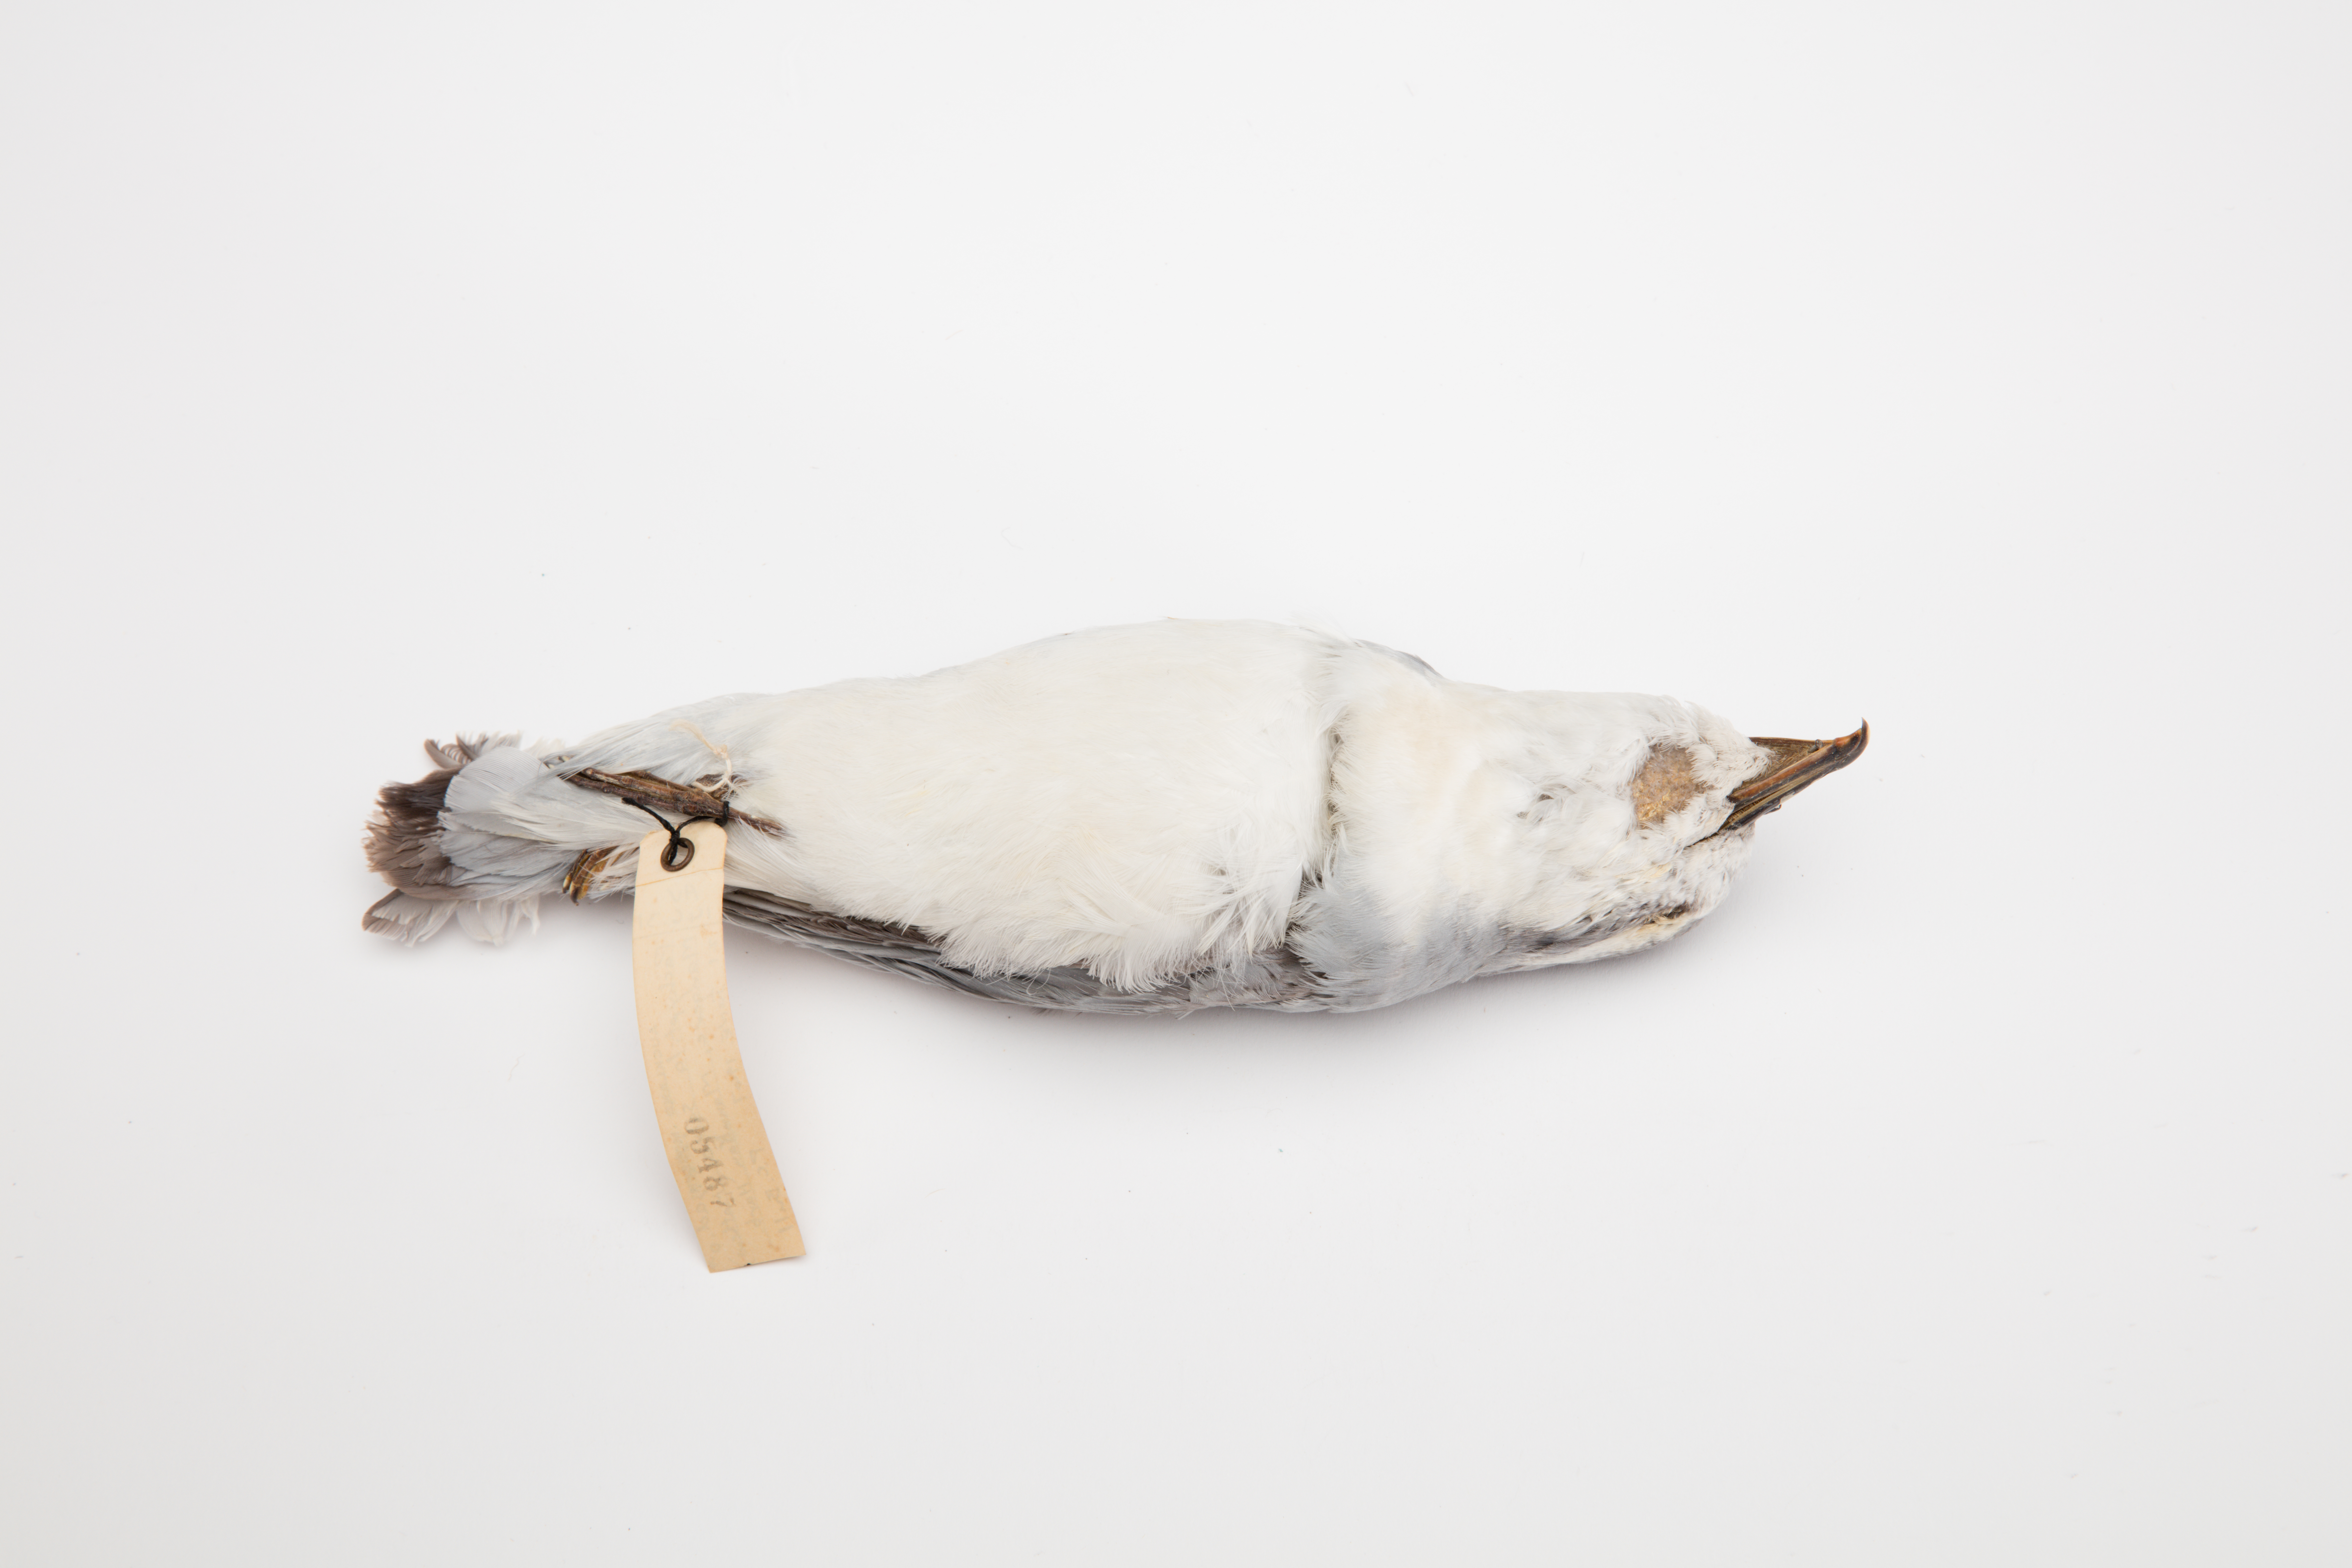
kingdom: Animalia
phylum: Chordata
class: Aves
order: Procellariiformes
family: Procellariidae
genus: Pachyptila
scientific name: Pachyptila salvini
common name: Salvin's prion
